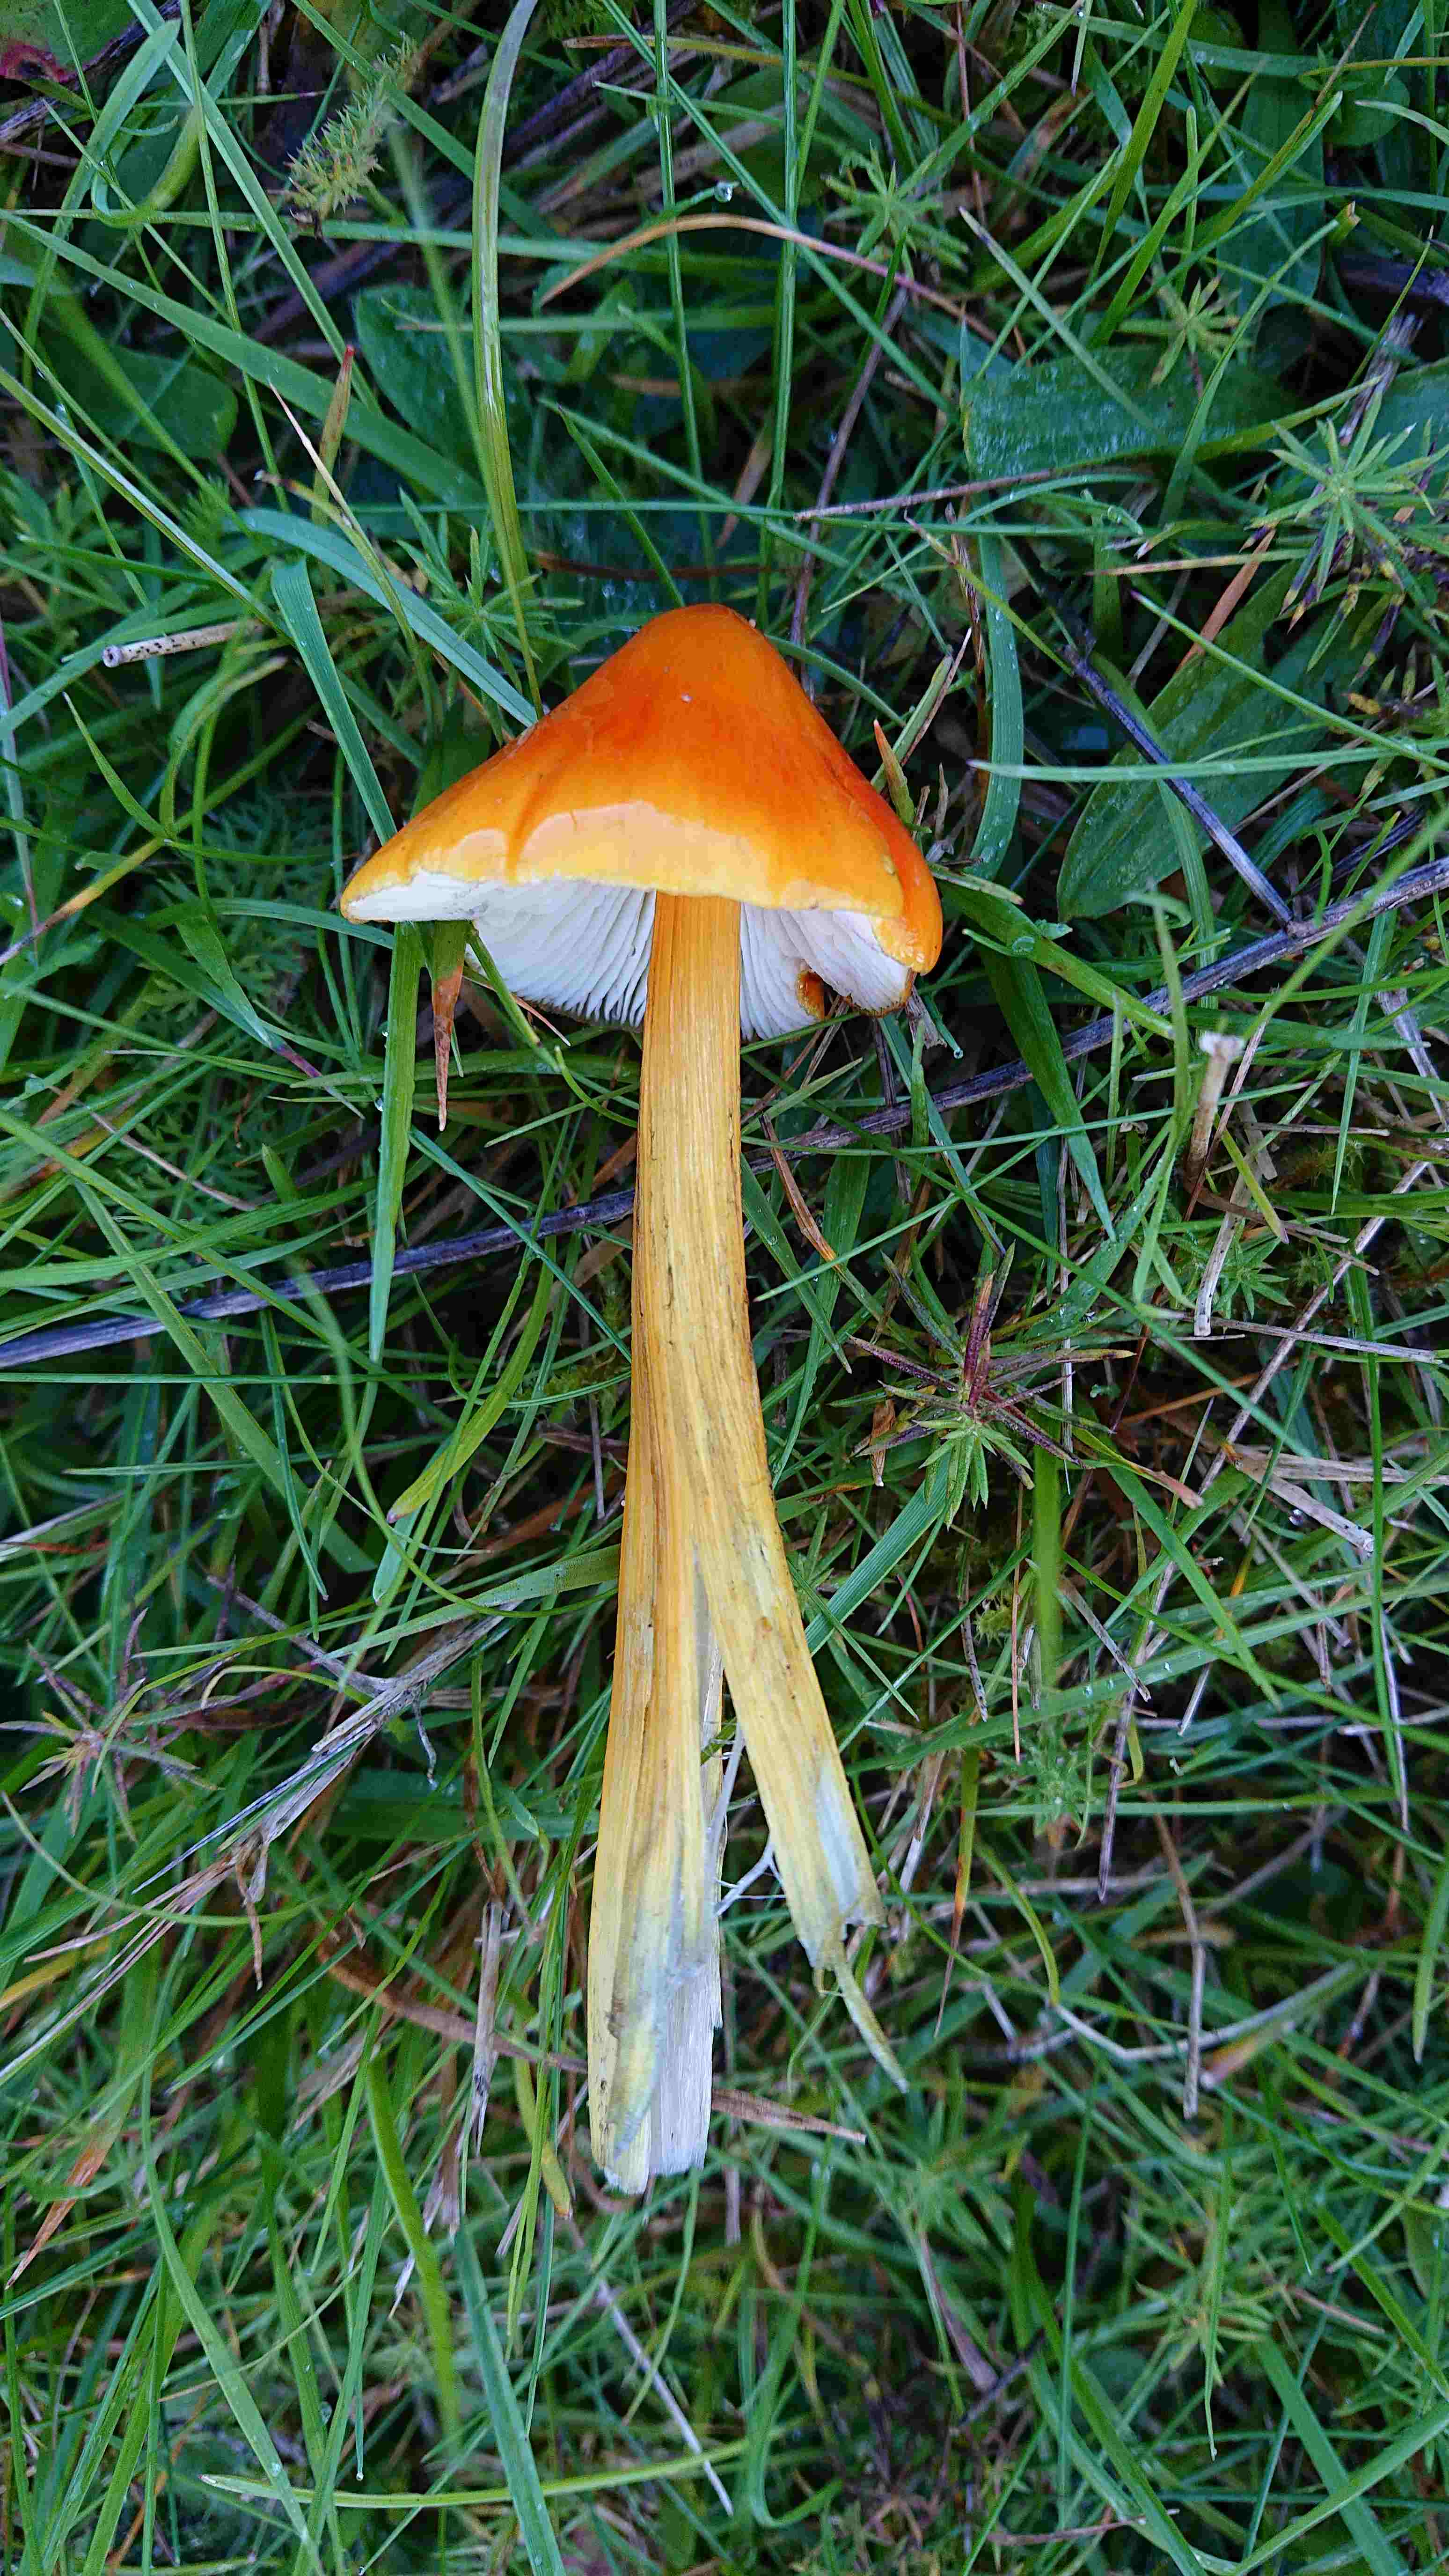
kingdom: Fungi
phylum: Basidiomycota
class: Agaricomycetes
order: Agaricales
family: Hygrophoraceae
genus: Hygrocybe
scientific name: Hygrocybe conica
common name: kegle-vokshat
